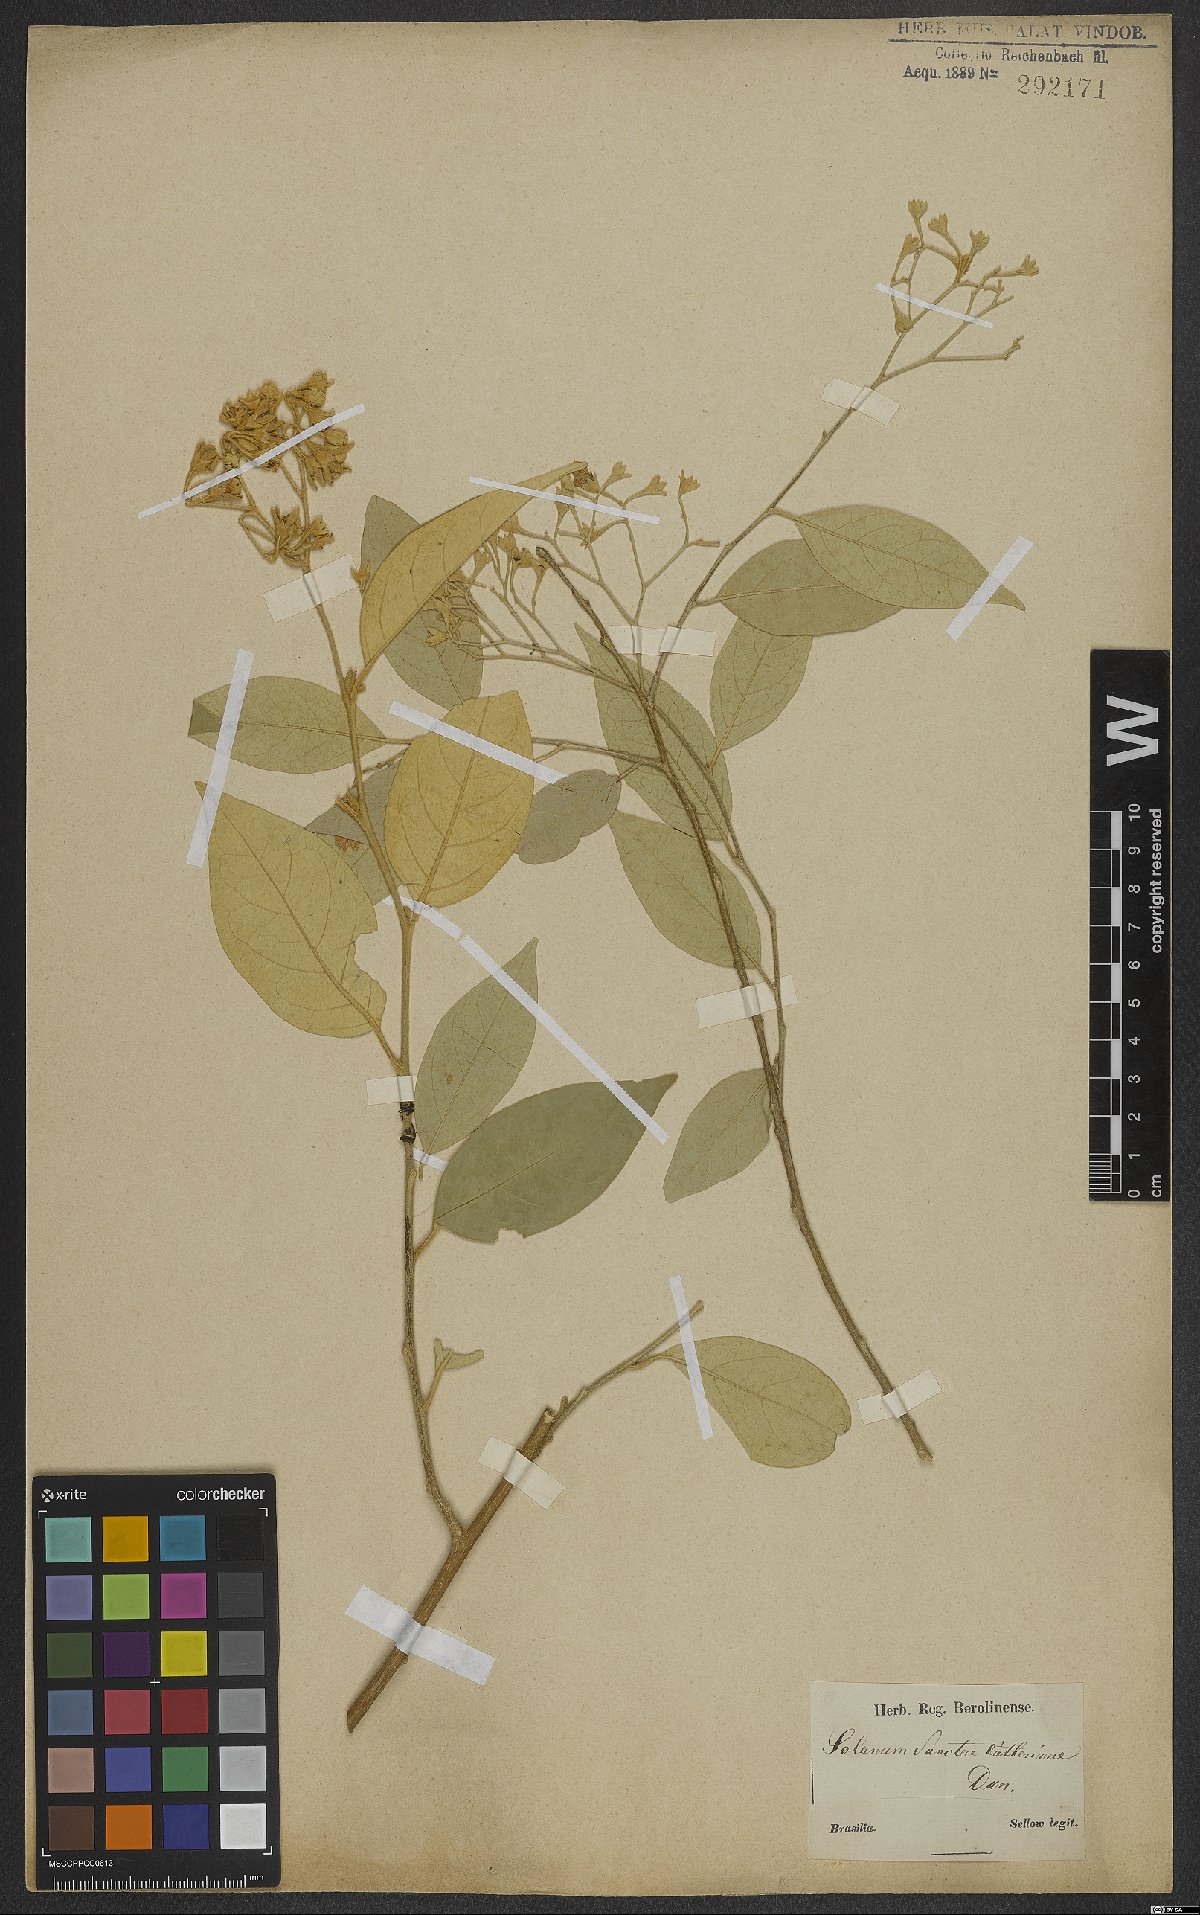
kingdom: Plantae
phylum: Tracheophyta
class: Magnoliopsida
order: Solanales
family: Solanaceae
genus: Solanum
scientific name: Solanum sanctae-catharinae
